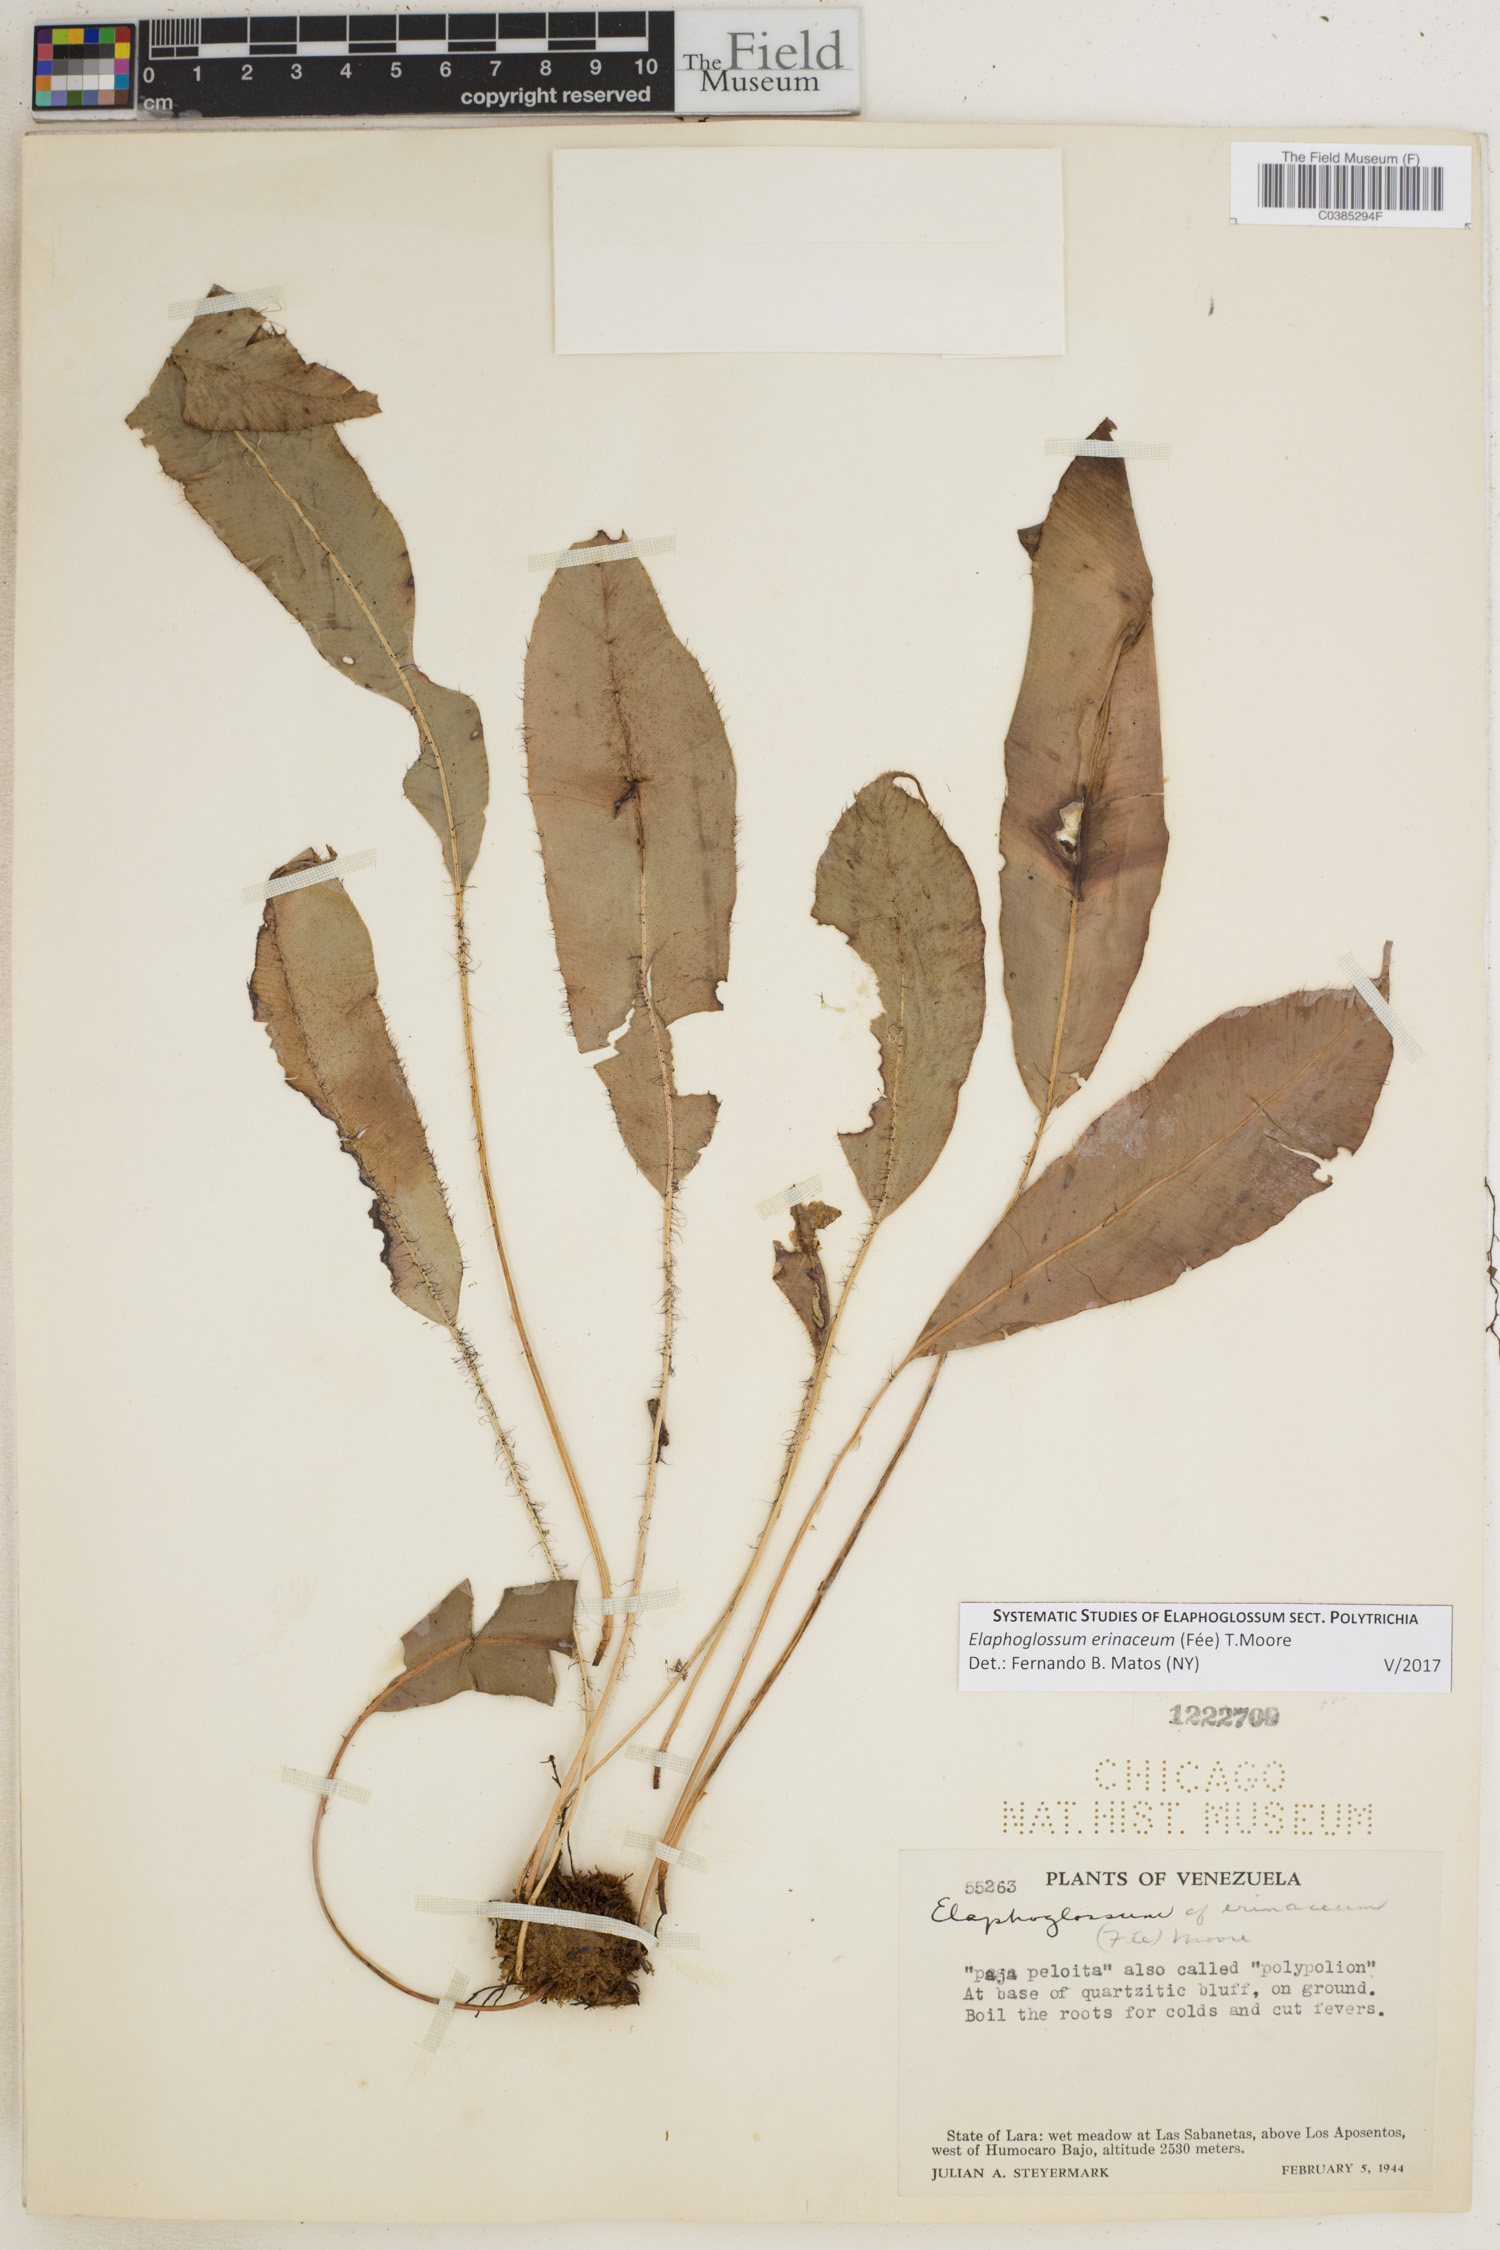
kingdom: Plantae
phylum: Tracheophyta
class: Polypodiopsida
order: Polypodiales
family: Dryopteridaceae
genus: Elaphoglossum
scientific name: Elaphoglossum erinaceum
